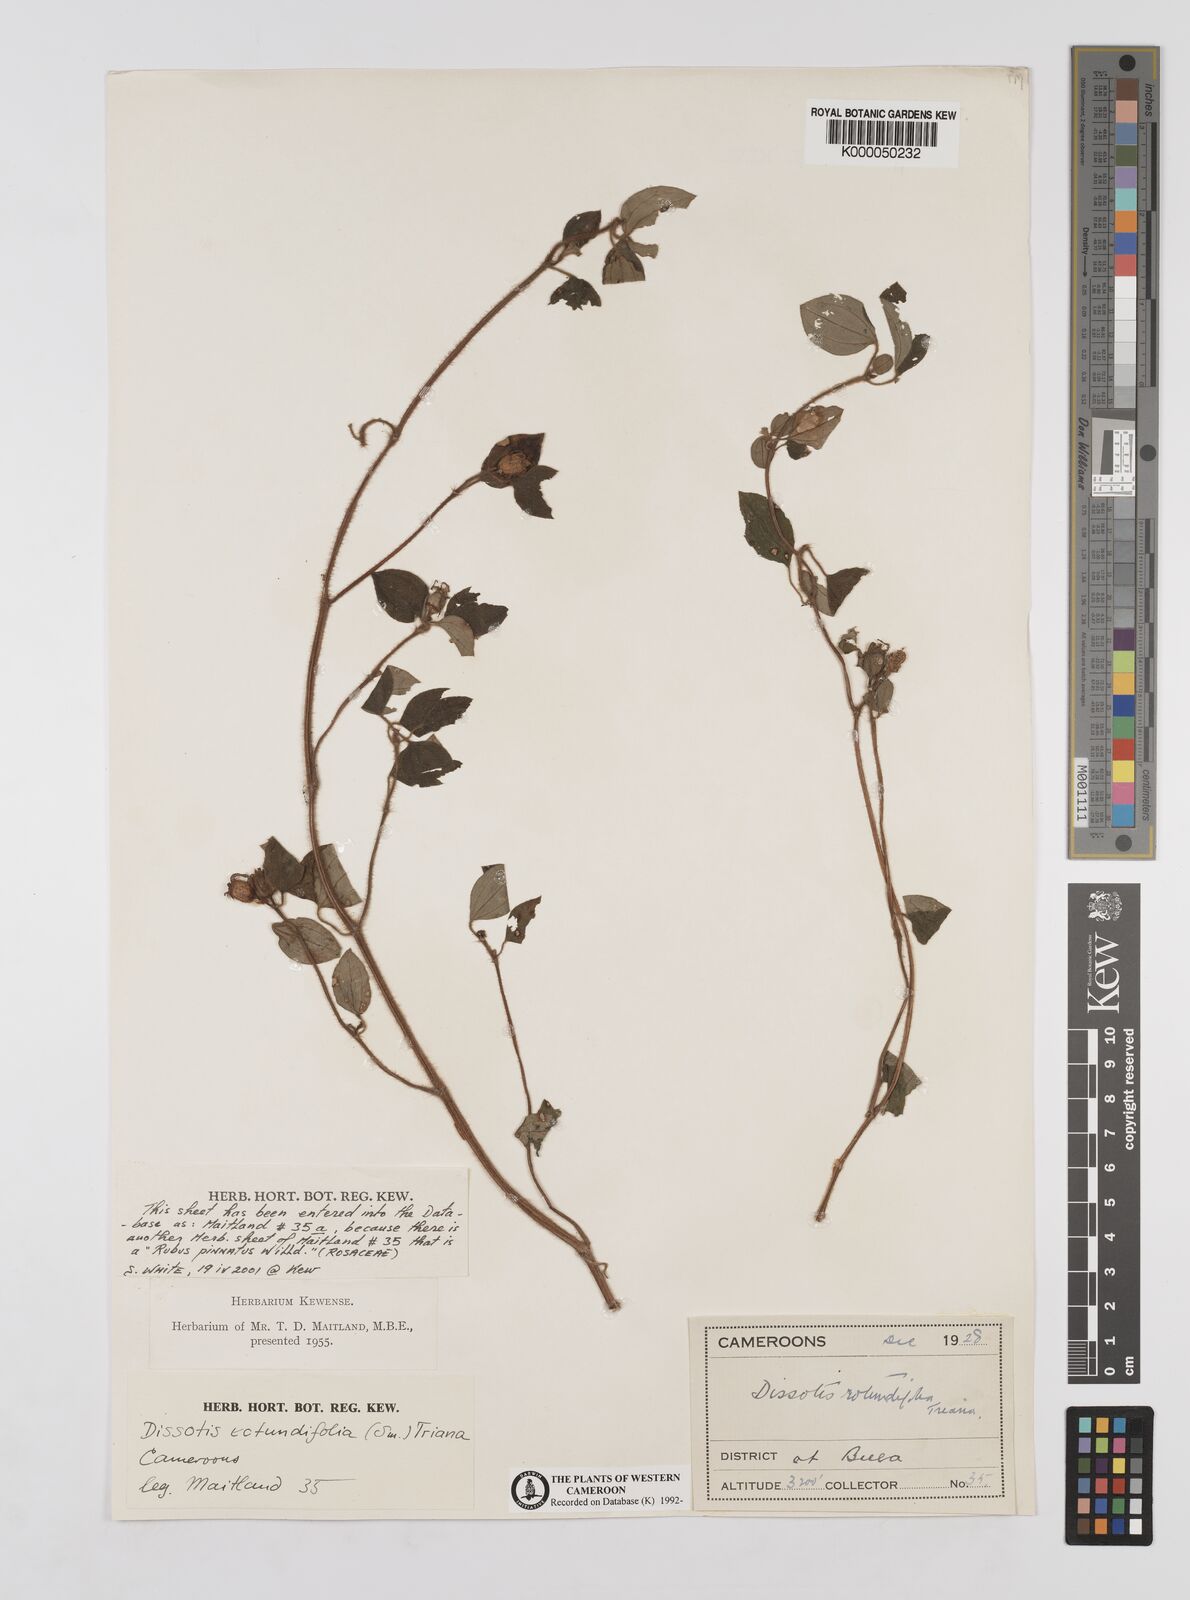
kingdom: Plantae
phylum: Tracheophyta
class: Magnoliopsida
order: Myrtales
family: Melastomataceae
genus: Heterotis
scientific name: Heterotis rotundifolia
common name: Pinklady
